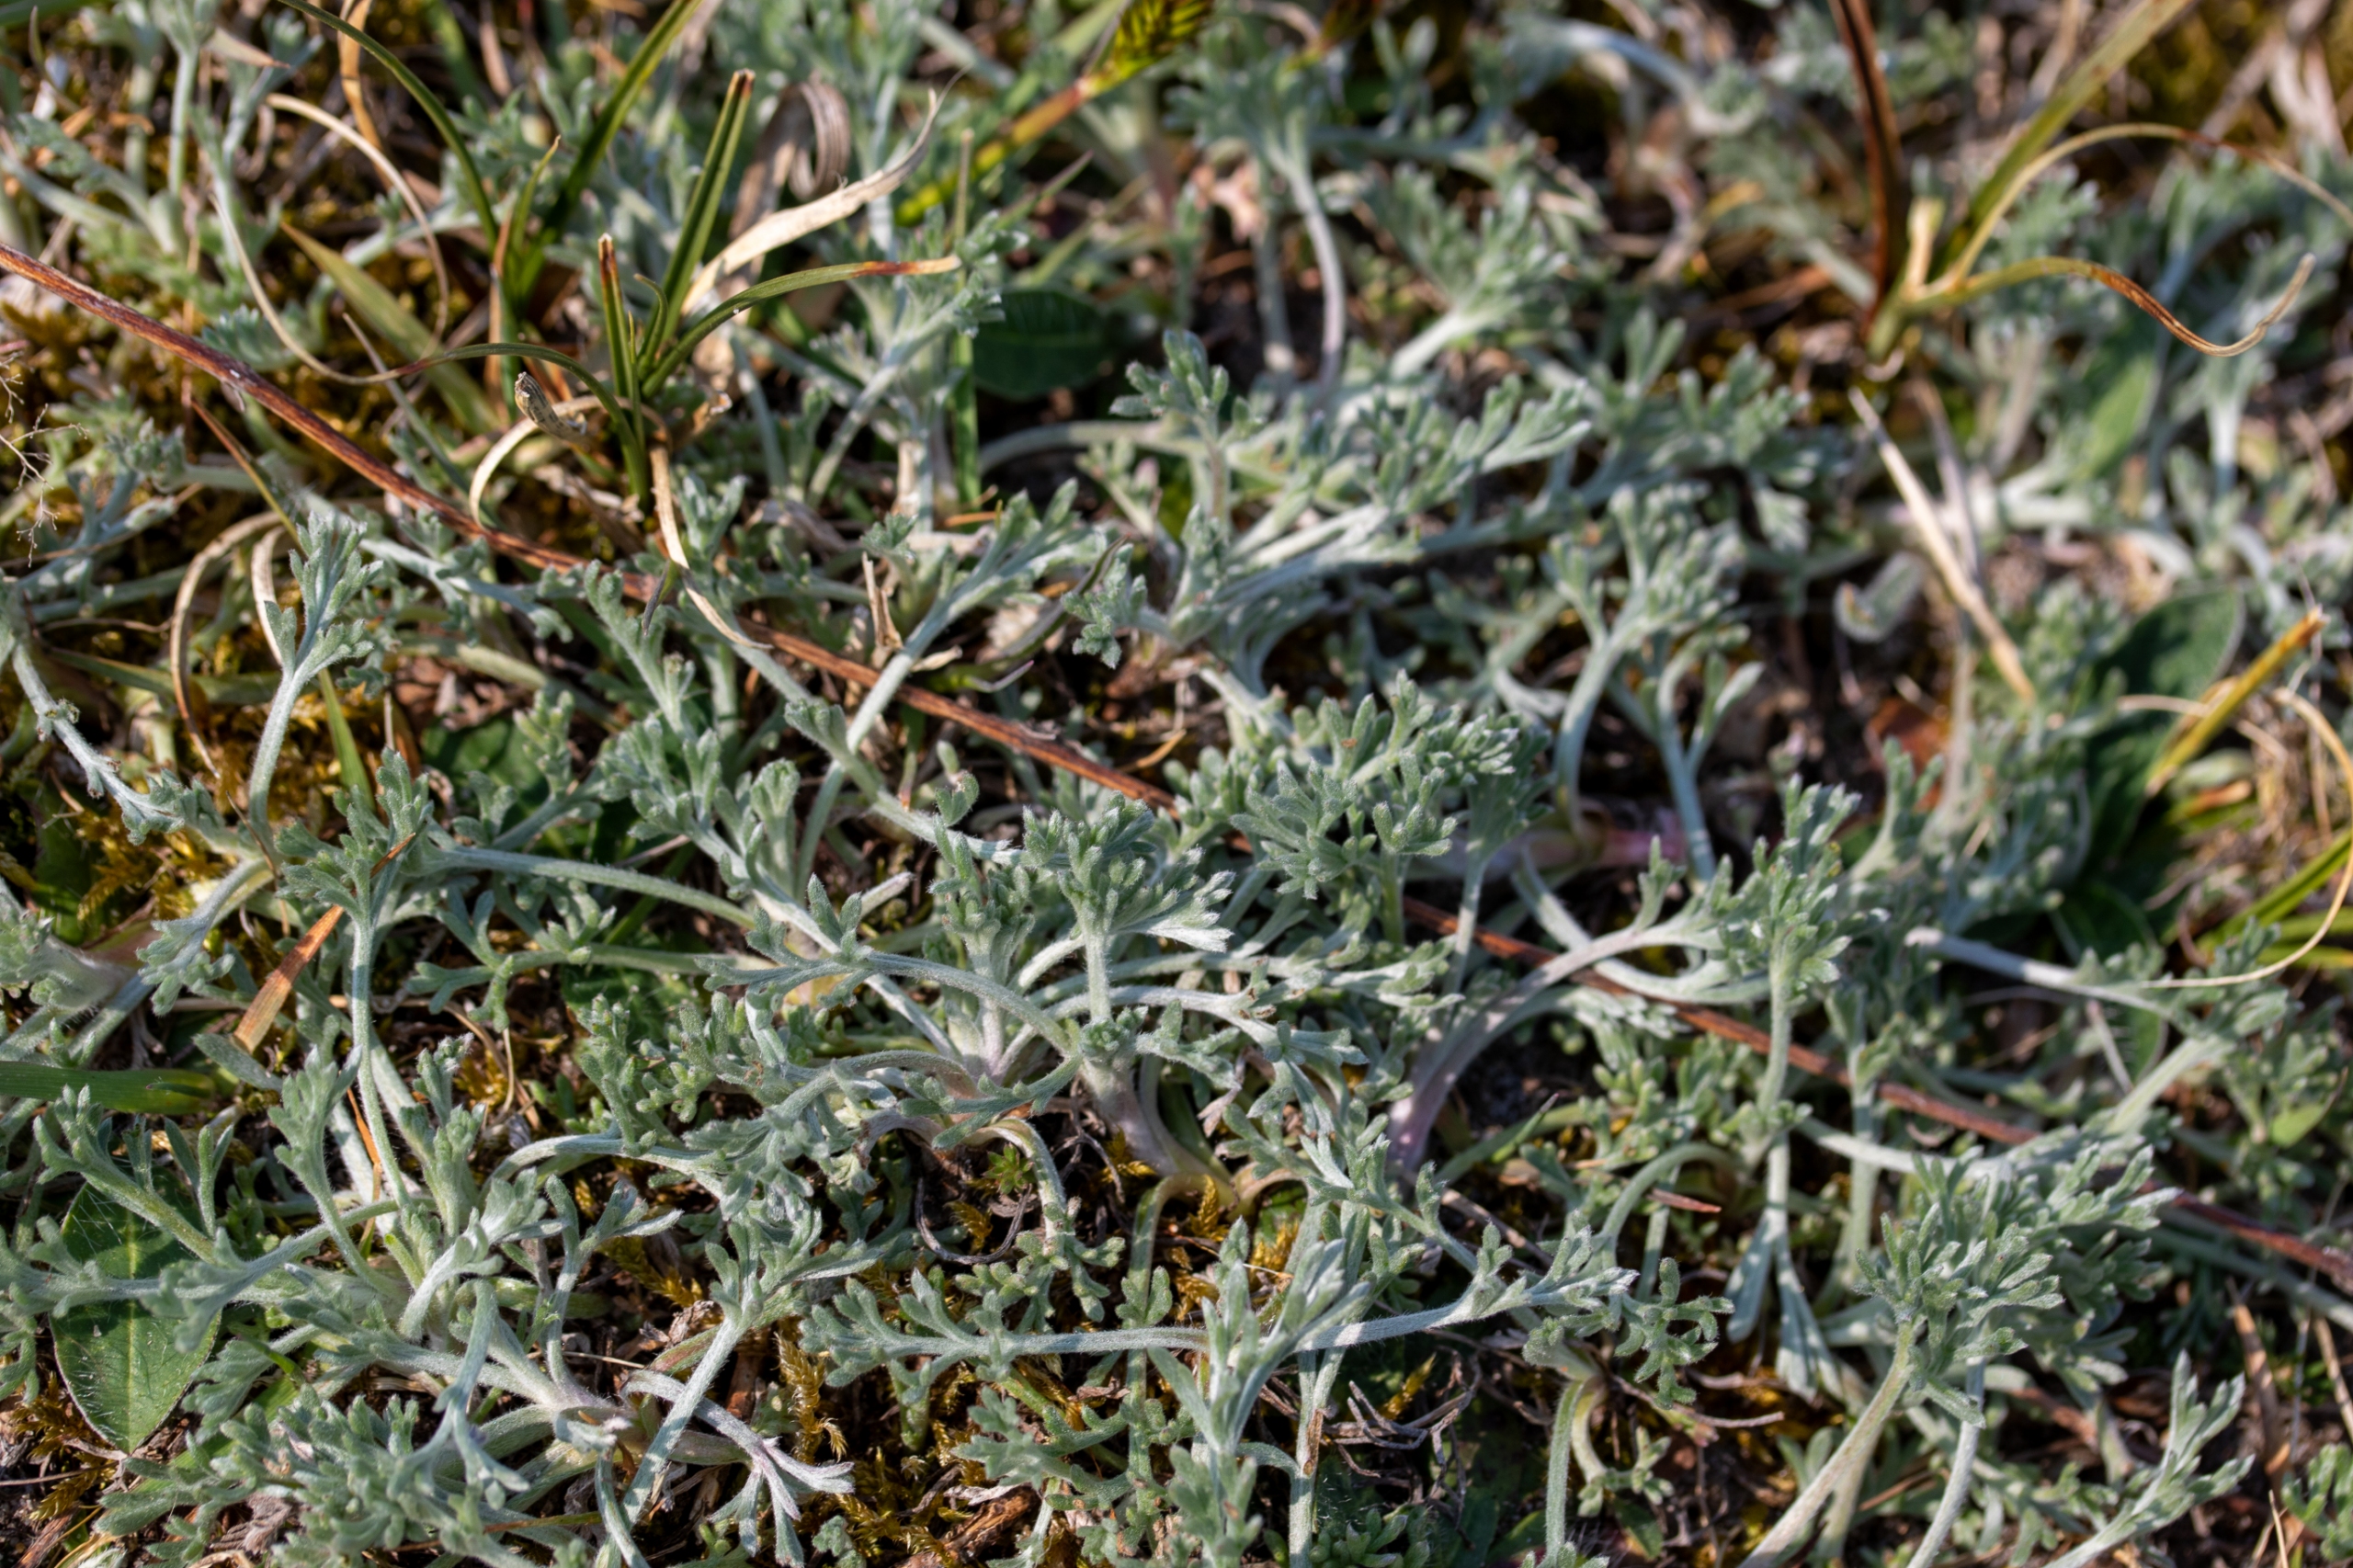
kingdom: Plantae
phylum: Tracheophyta
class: Magnoliopsida
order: Asterales
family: Asteraceae
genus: Artemisia
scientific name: Artemisia maritima
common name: Strandmalurt
